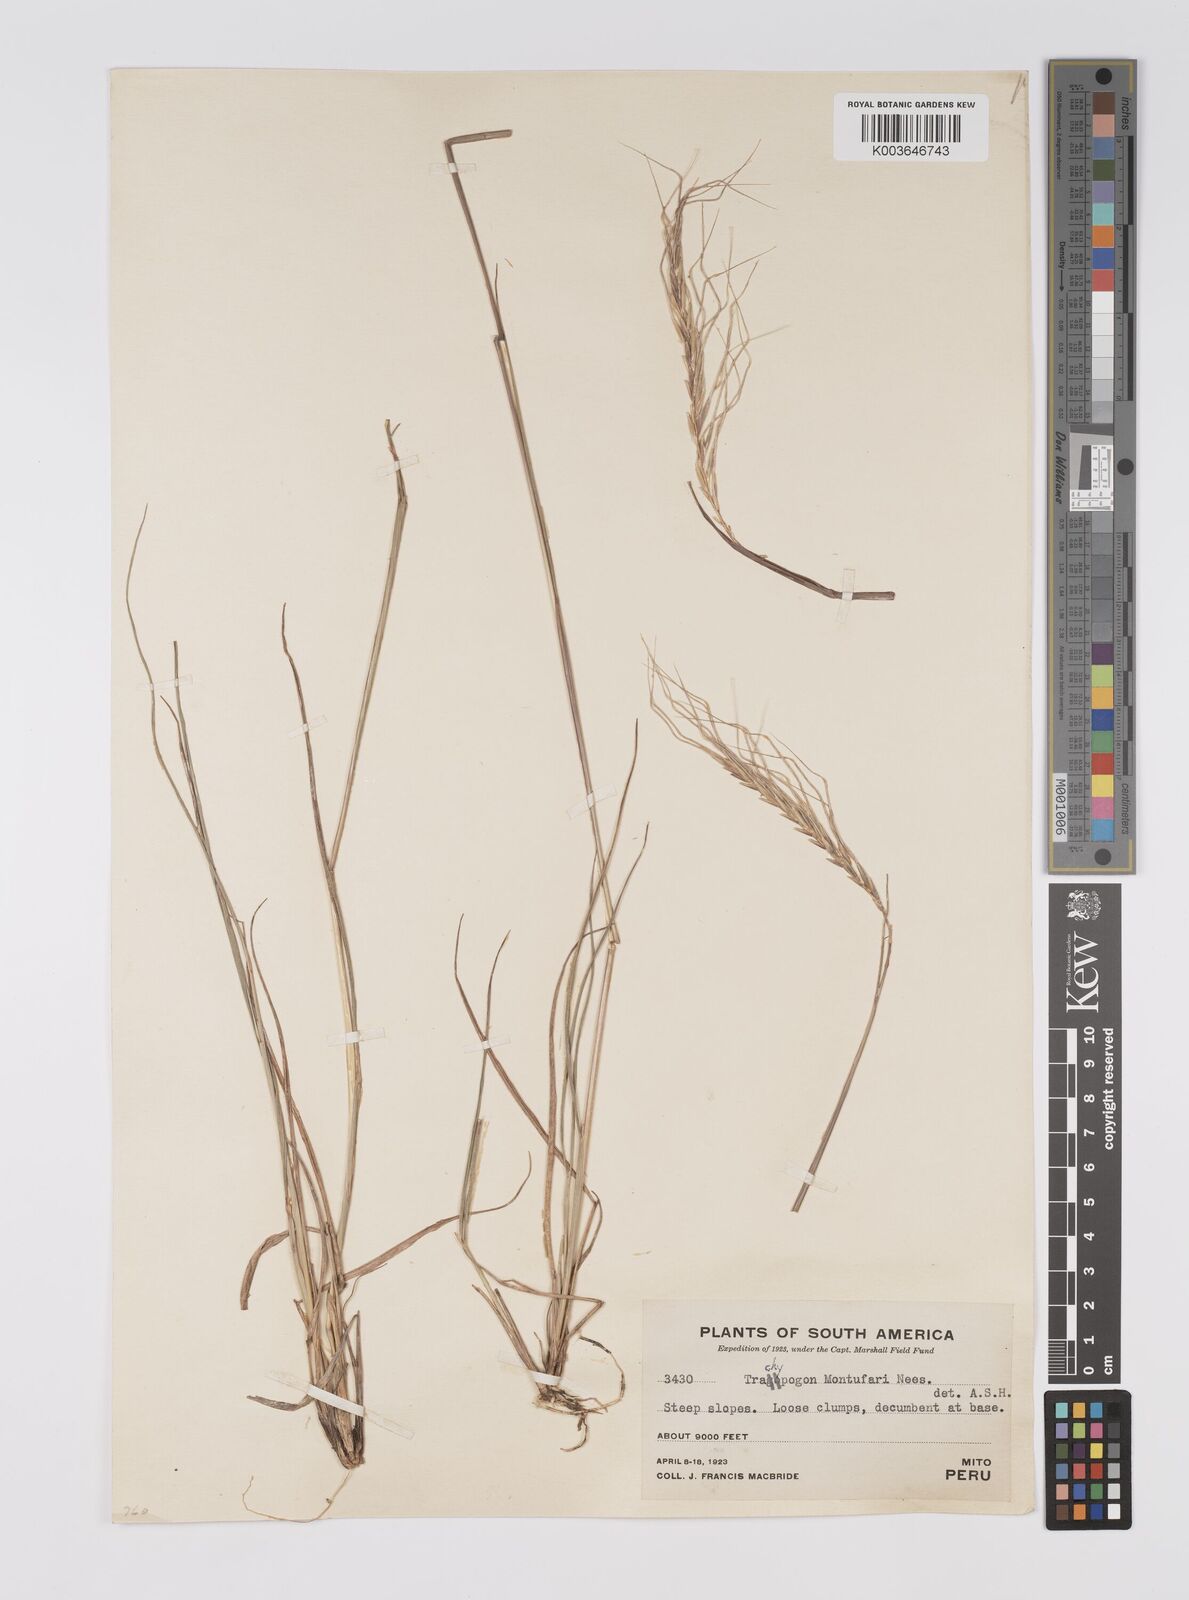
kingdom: Plantae
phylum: Tracheophyta
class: Liliopsida
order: Poales
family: Poaceae
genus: Trachypogon
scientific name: Trachypogon spicatus
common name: Crinkle-awn
